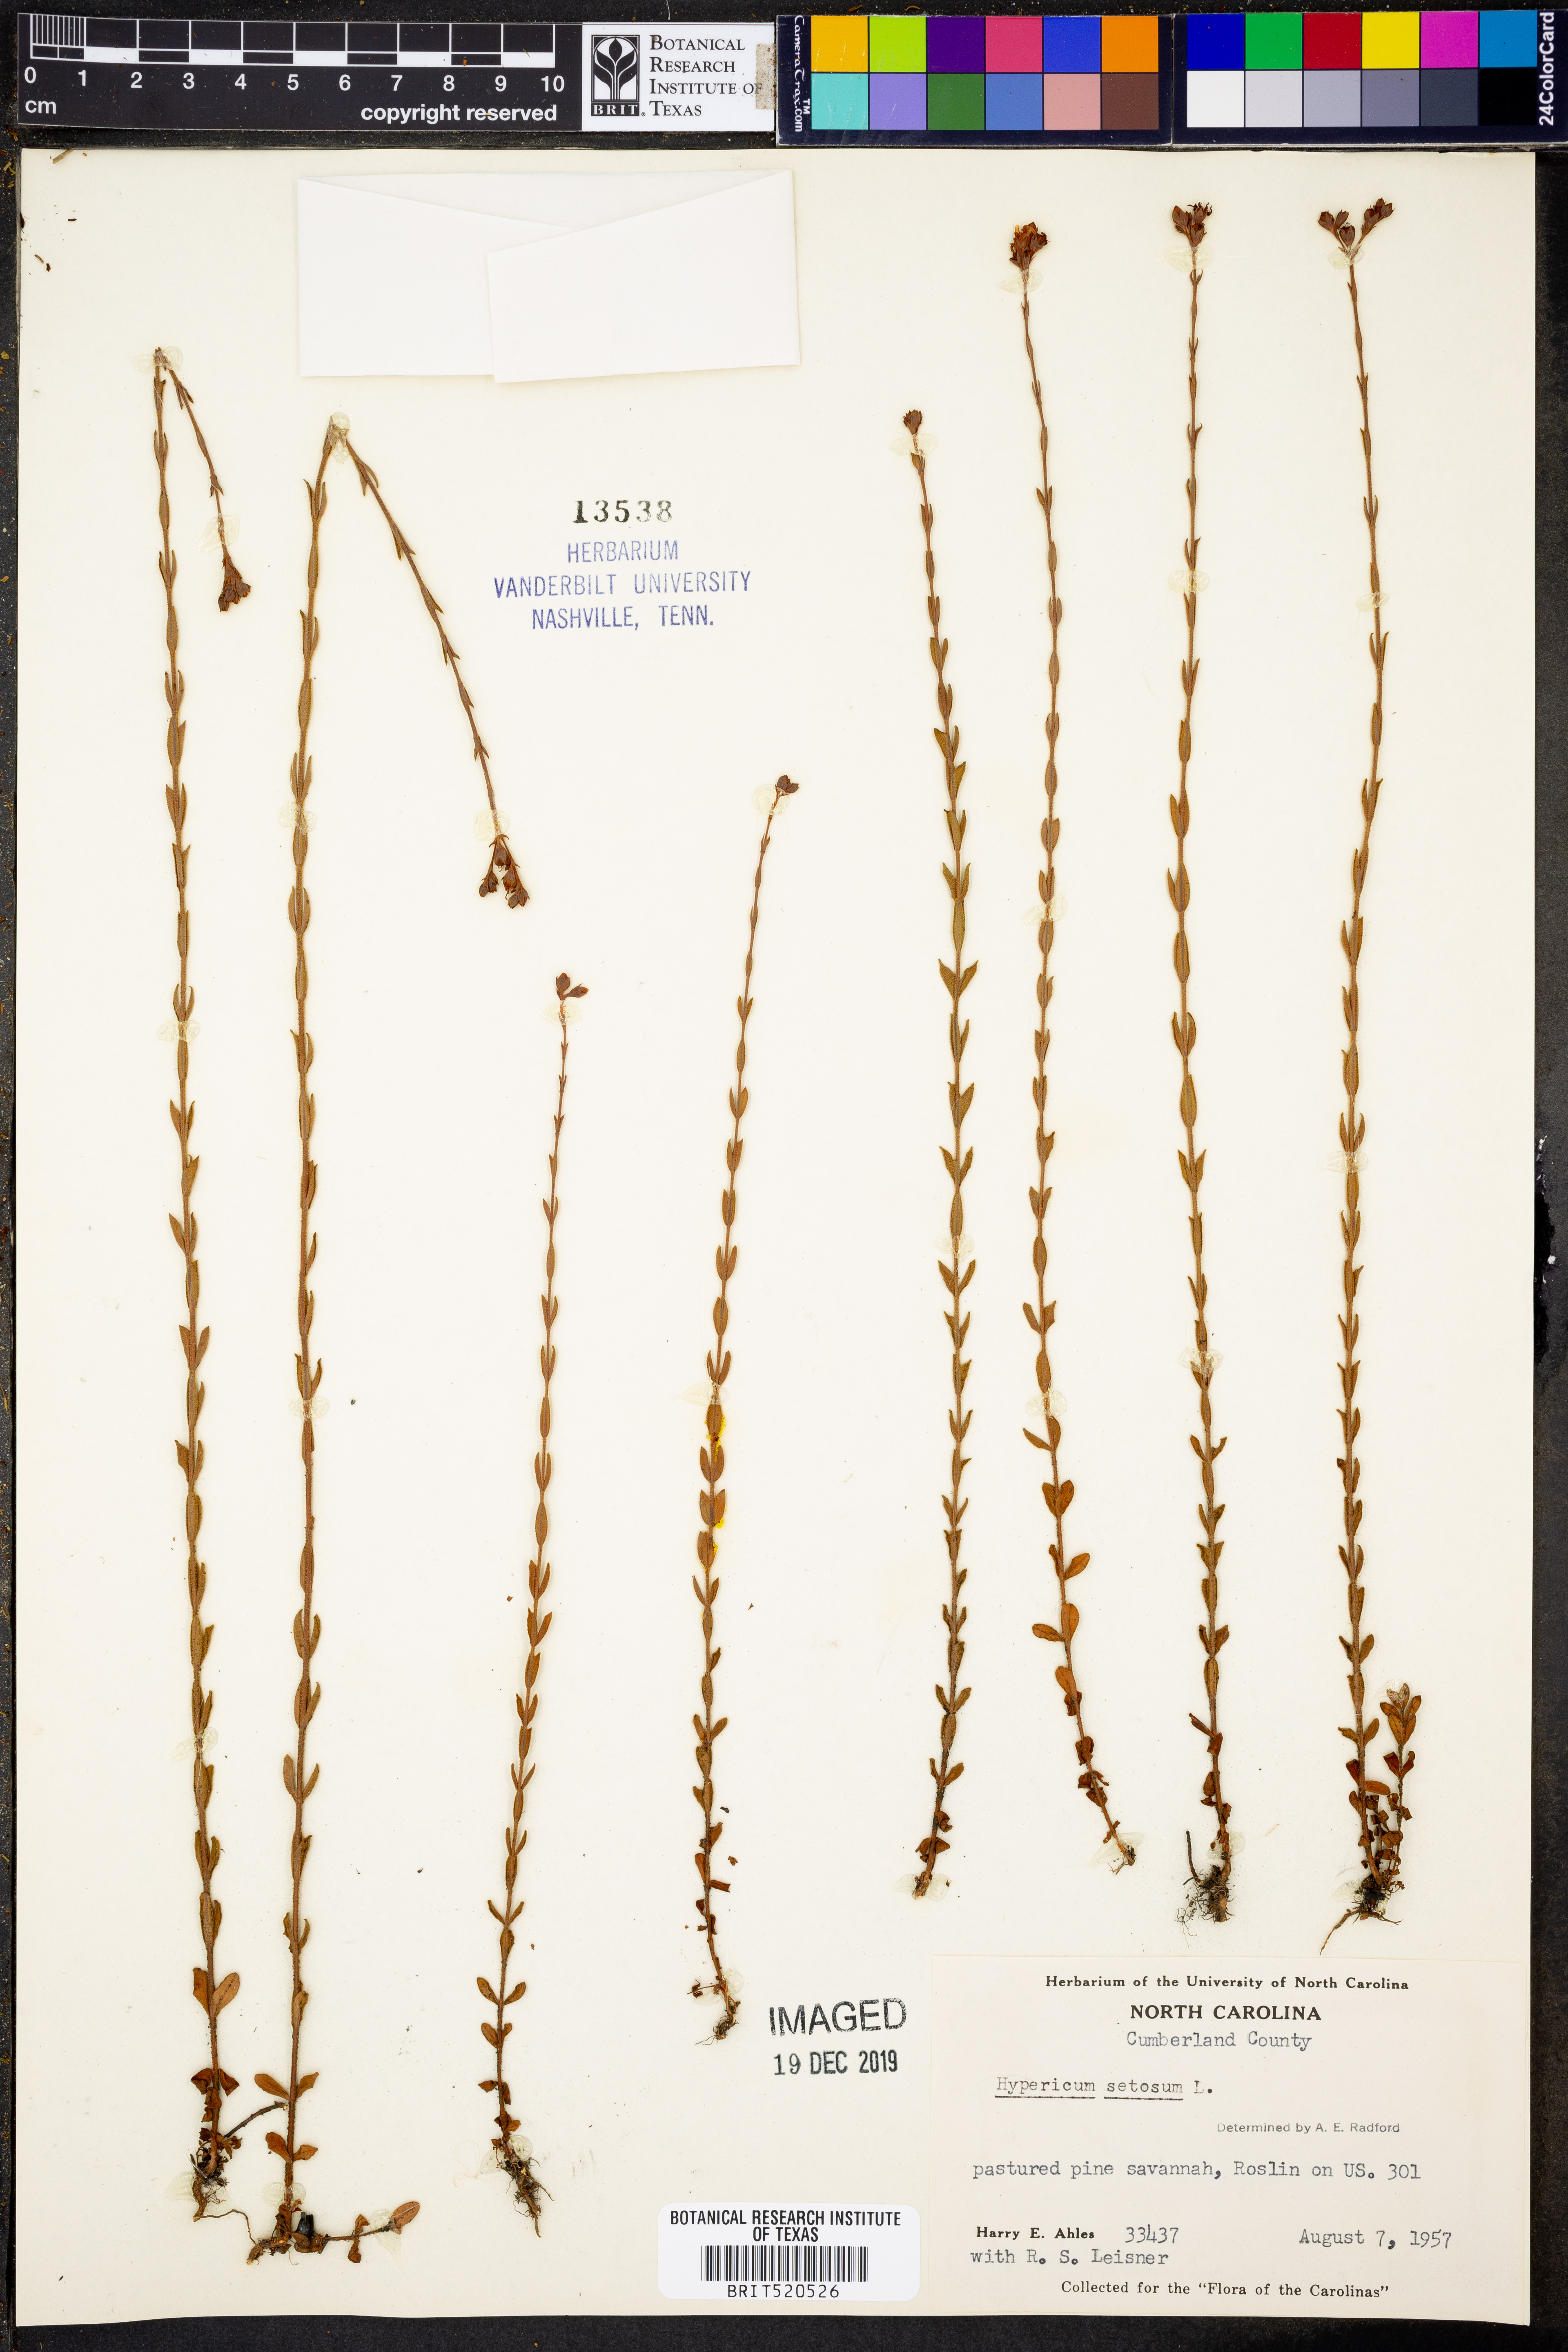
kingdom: Plantae
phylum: Tracheophyta
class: Magnoliopsida
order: Malpighiales
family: Hypericaceae
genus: Hypericum
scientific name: Hypericum setosum
